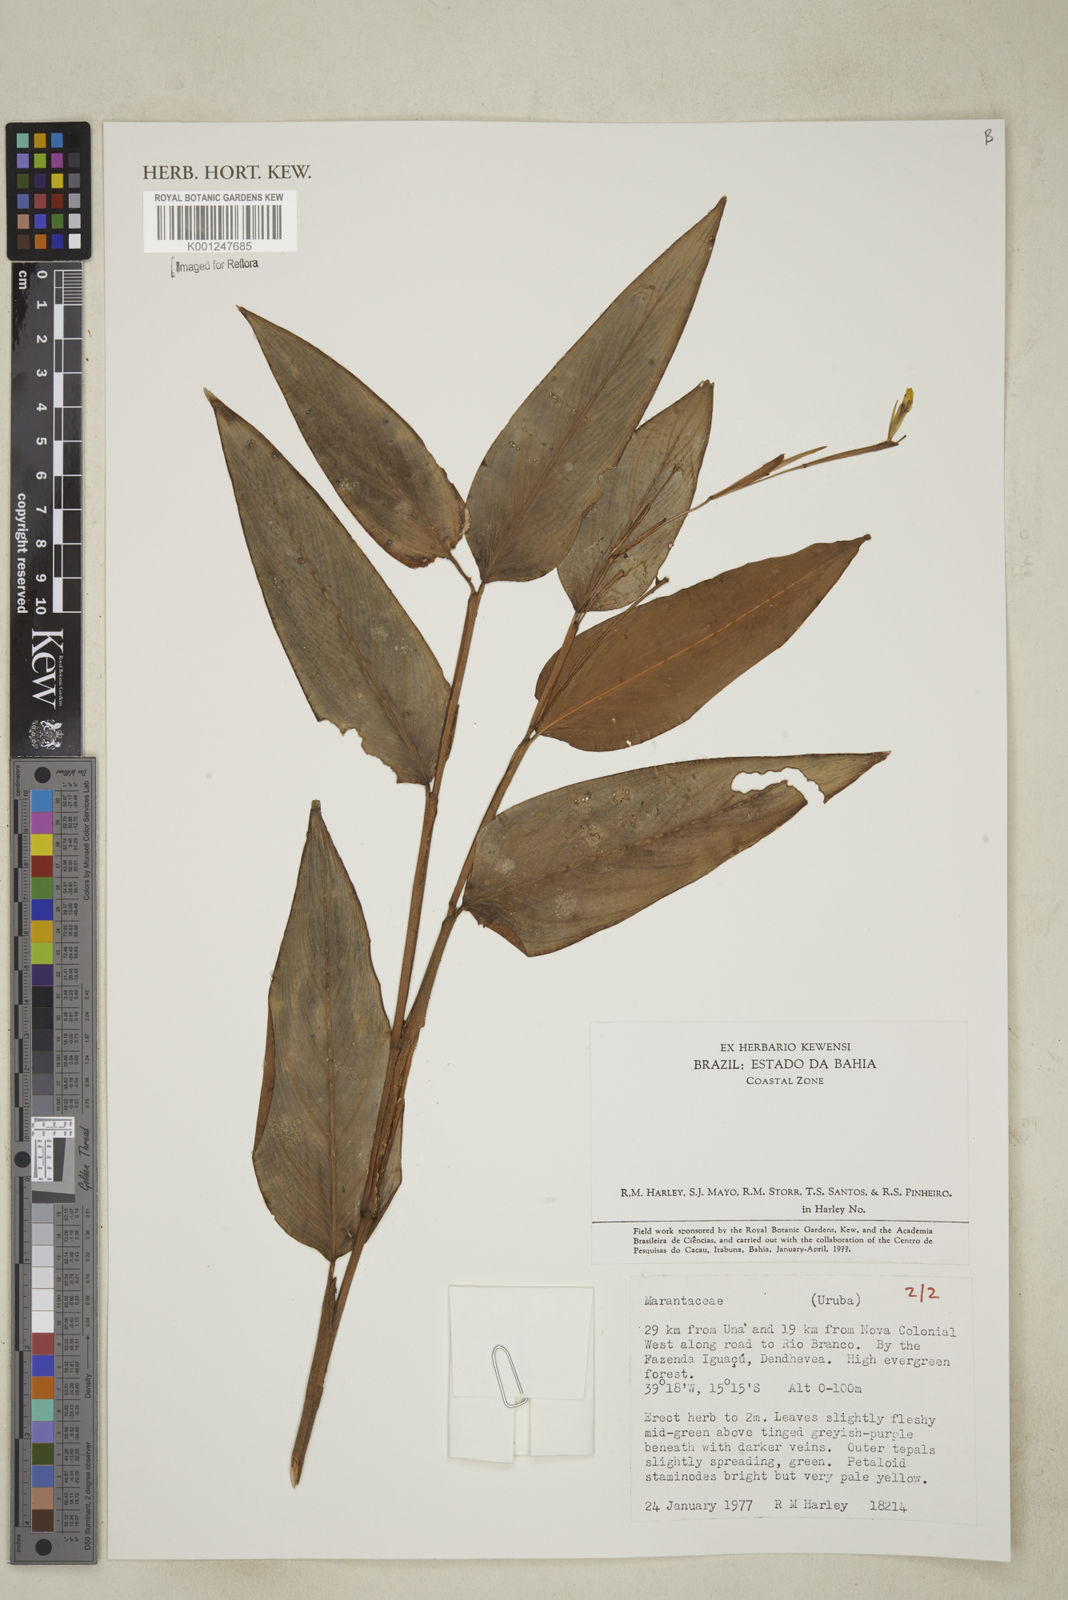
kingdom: Plantae
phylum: Tracheophyta
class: Liliopsida
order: Zingiberales
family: Marantaceae
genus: Maranta
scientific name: Maranta
